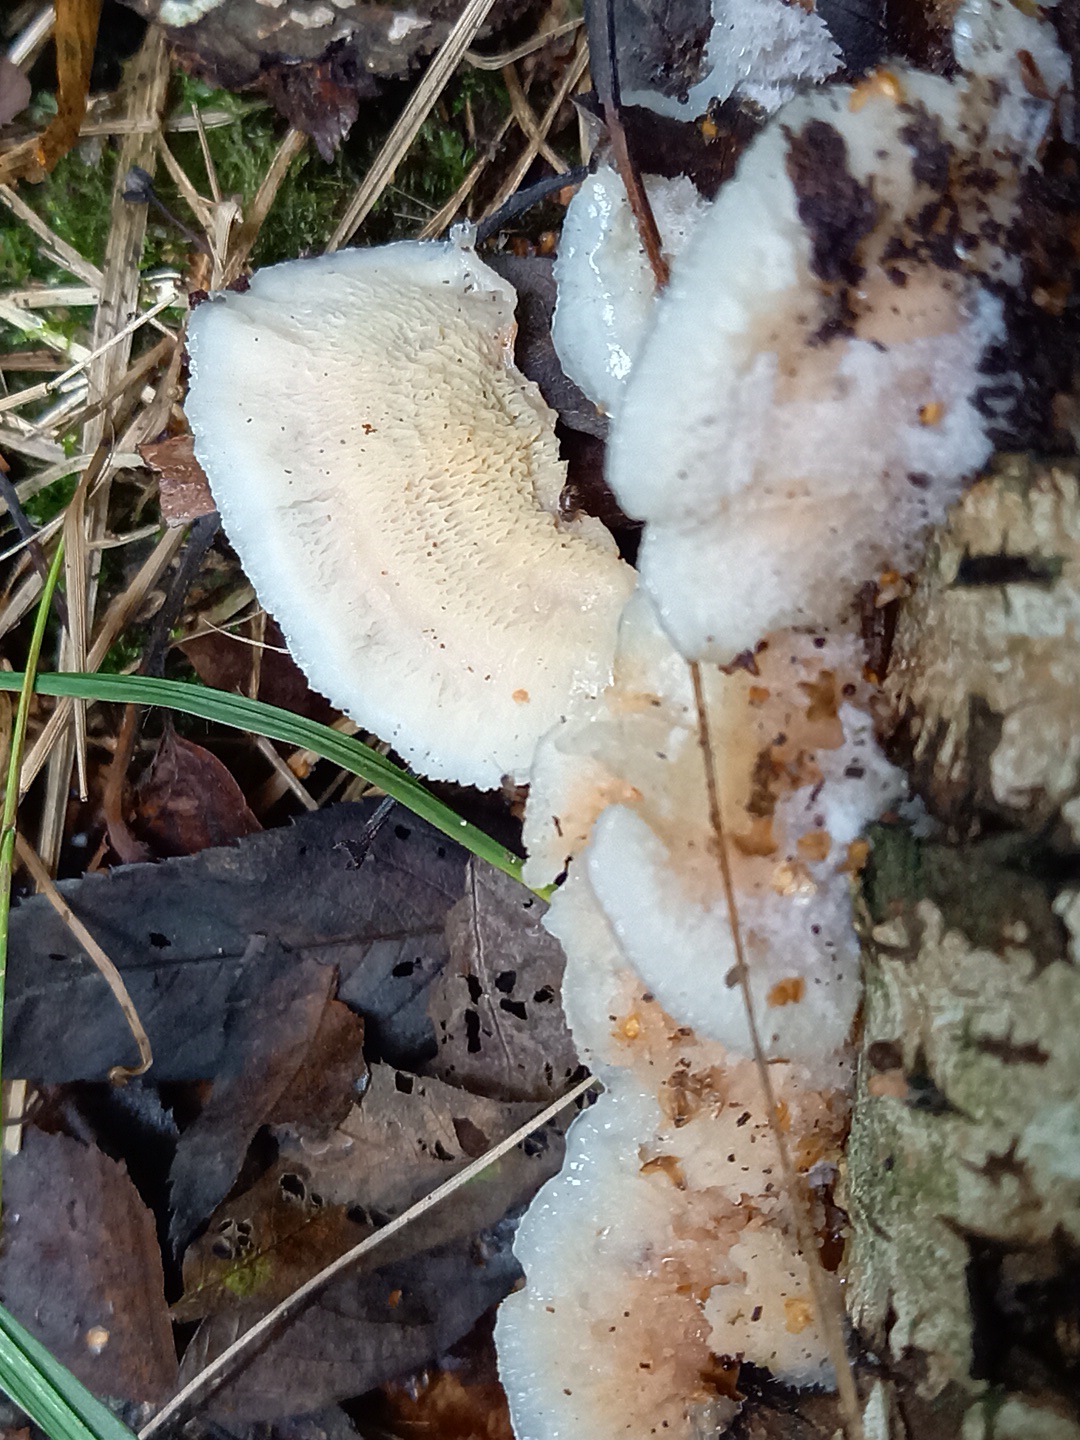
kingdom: Fungi
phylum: Basidiomycota
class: Agaricomycetes
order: Polyporales
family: Meruliaceae
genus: Phlebia
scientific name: Phlebia tremellosa
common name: bævrende åresvamp
